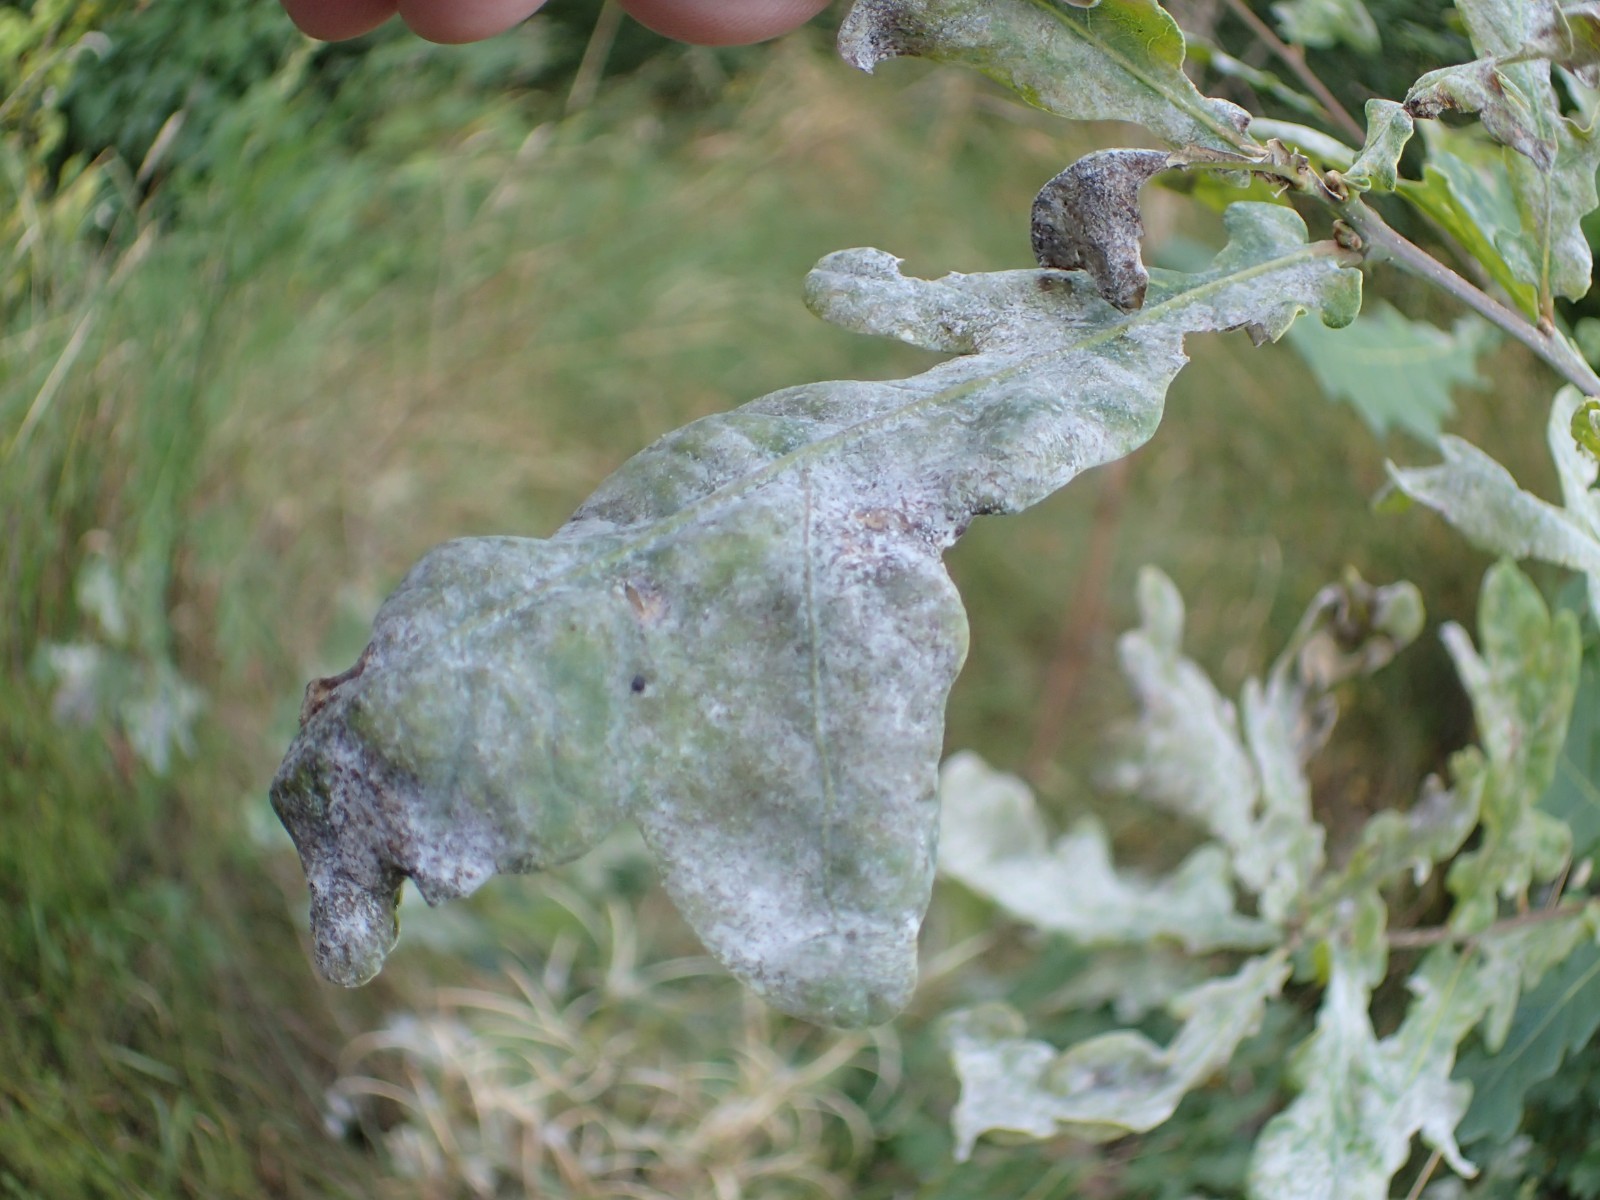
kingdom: Fungi
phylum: Ascomycota
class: Leotiomycetes
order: Helotiales
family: Erysiphaceae
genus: Erysiphe
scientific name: Erysiphe alphitoides
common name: ege-meldug
